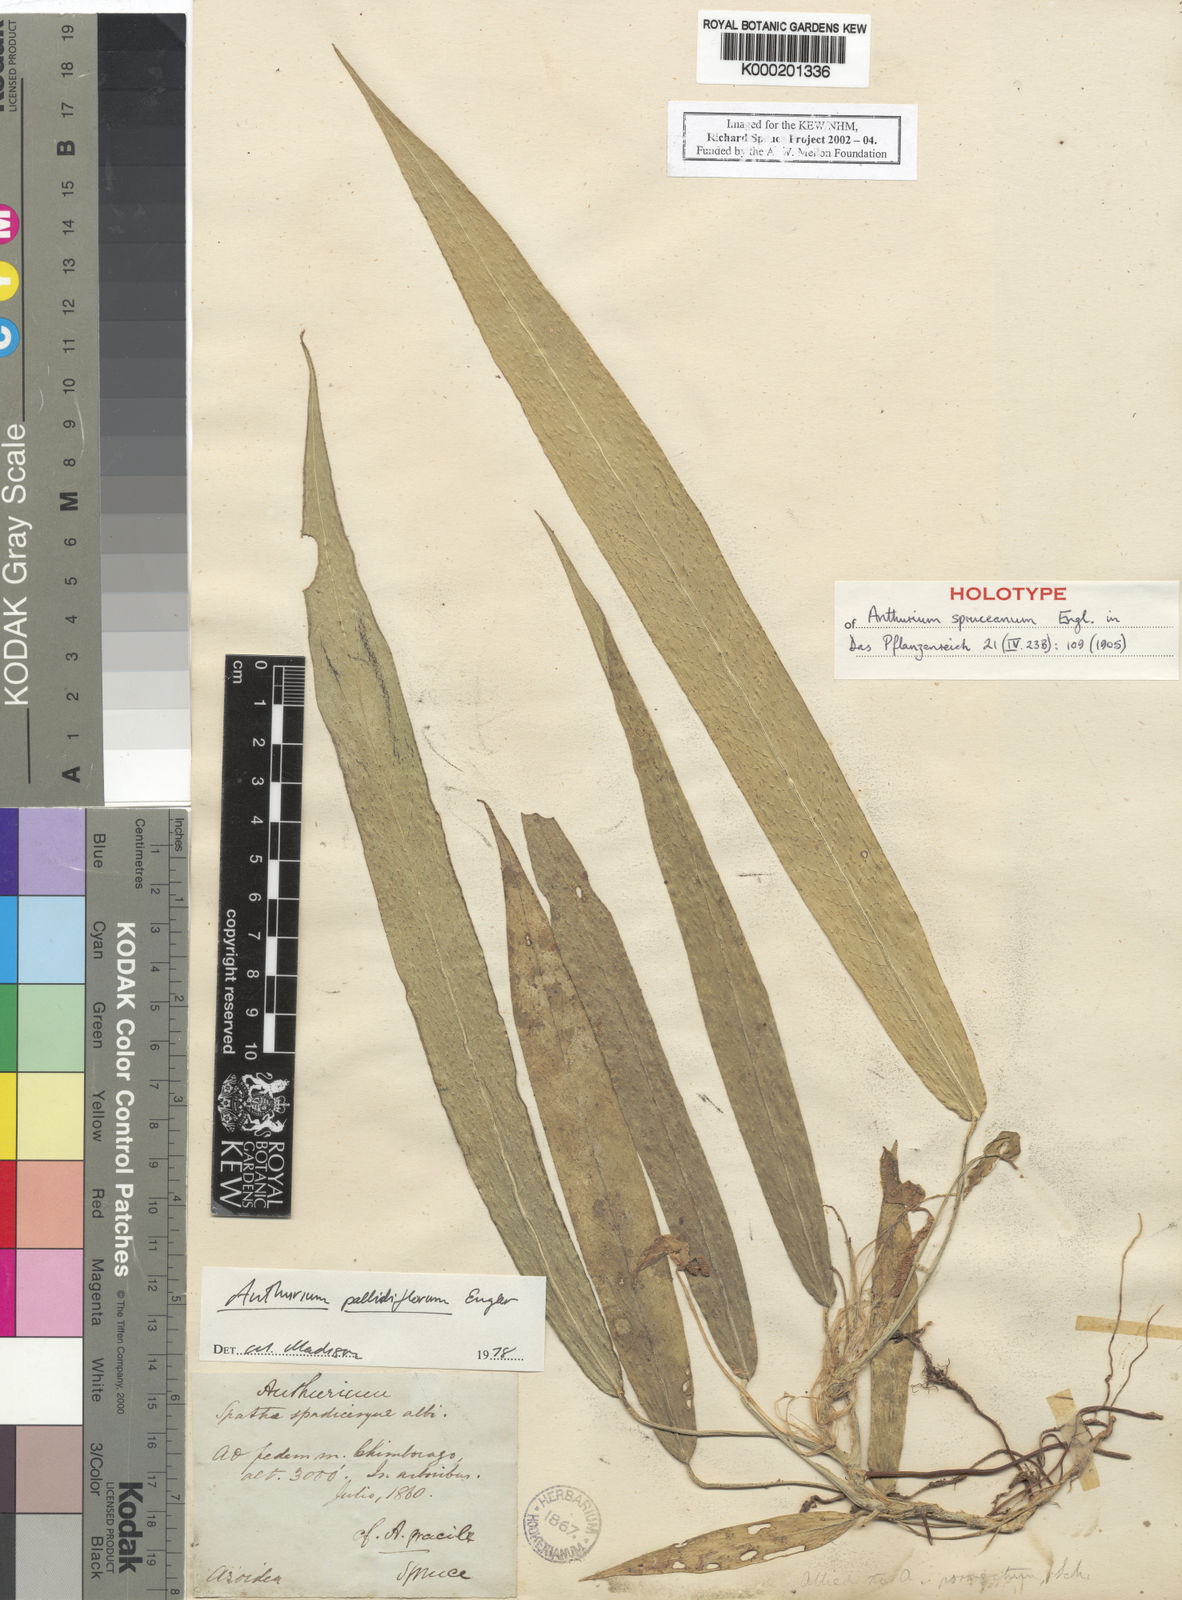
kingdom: Plantae
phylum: Tracheophyta
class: Liliopsida
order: Alismatales
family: Araceae
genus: Anthurium
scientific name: Anthurium pallidiflorum
